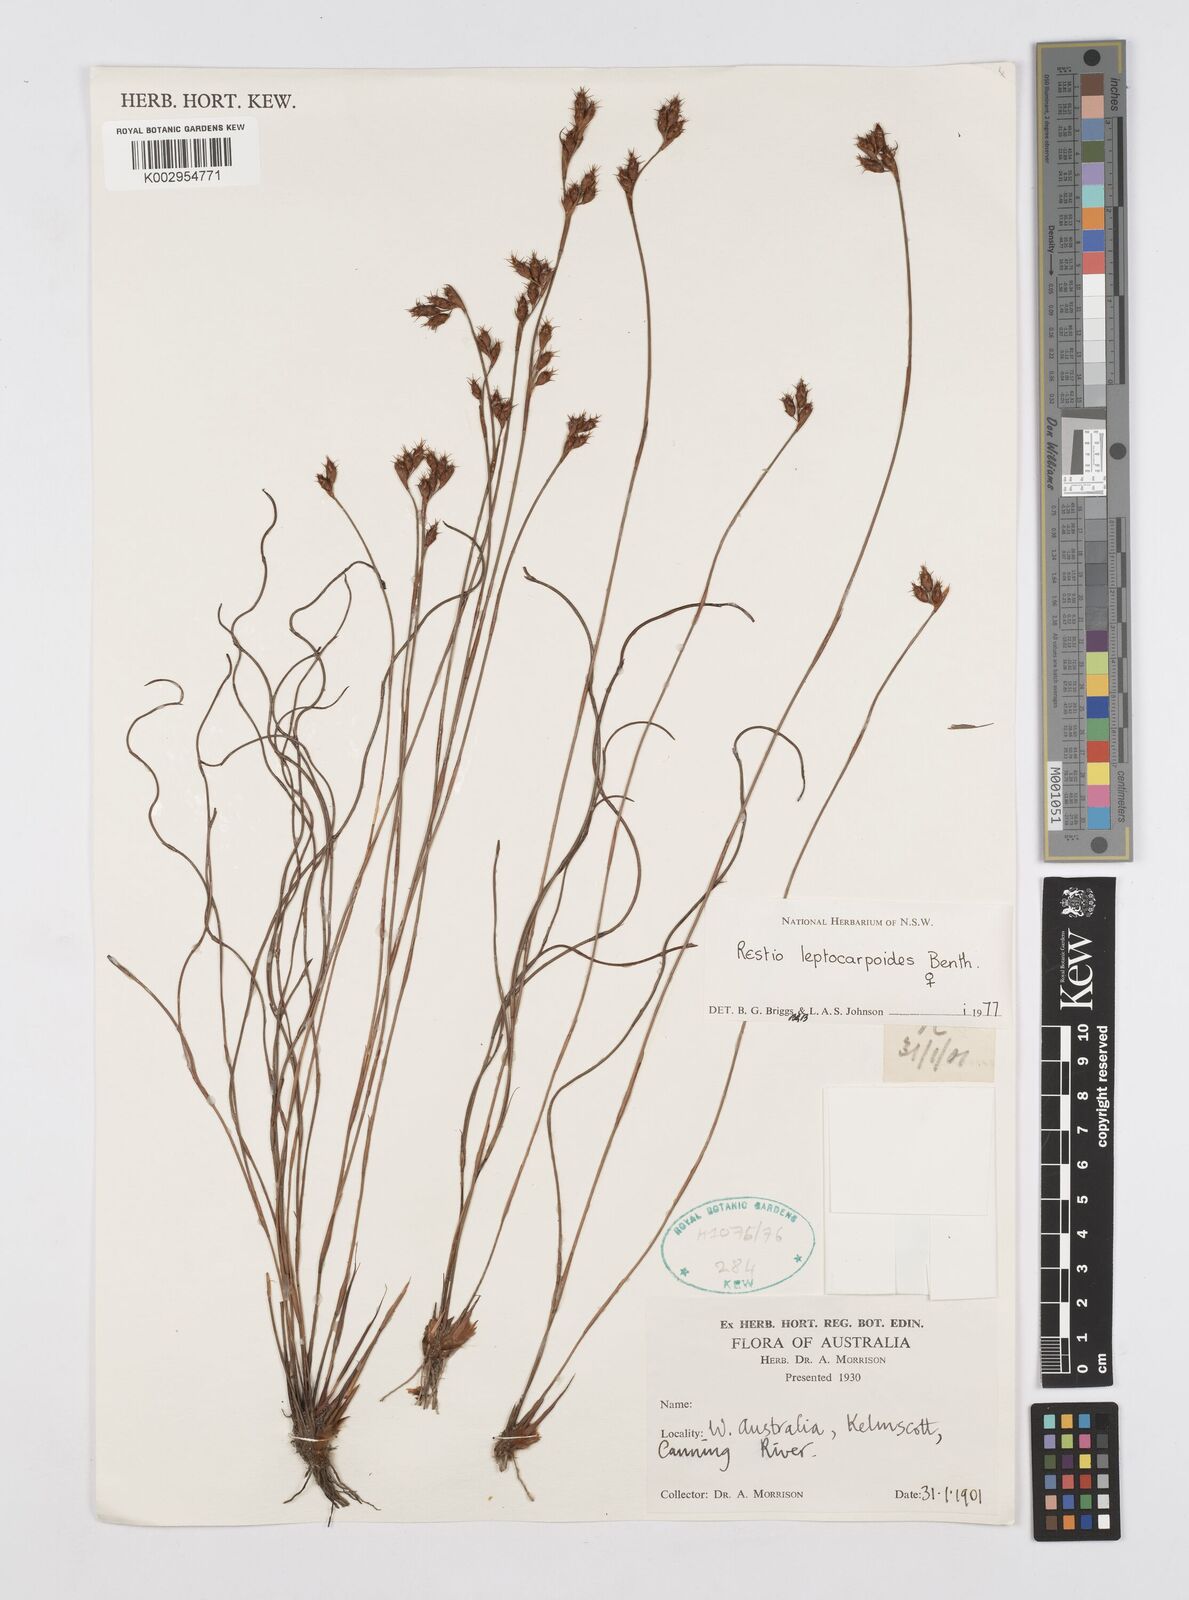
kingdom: Plantae
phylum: Tracheophyta
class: Liliopsida
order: Poales
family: Restionaceae
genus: Cytogonidium
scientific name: Cytogonidium leptocarpoides
